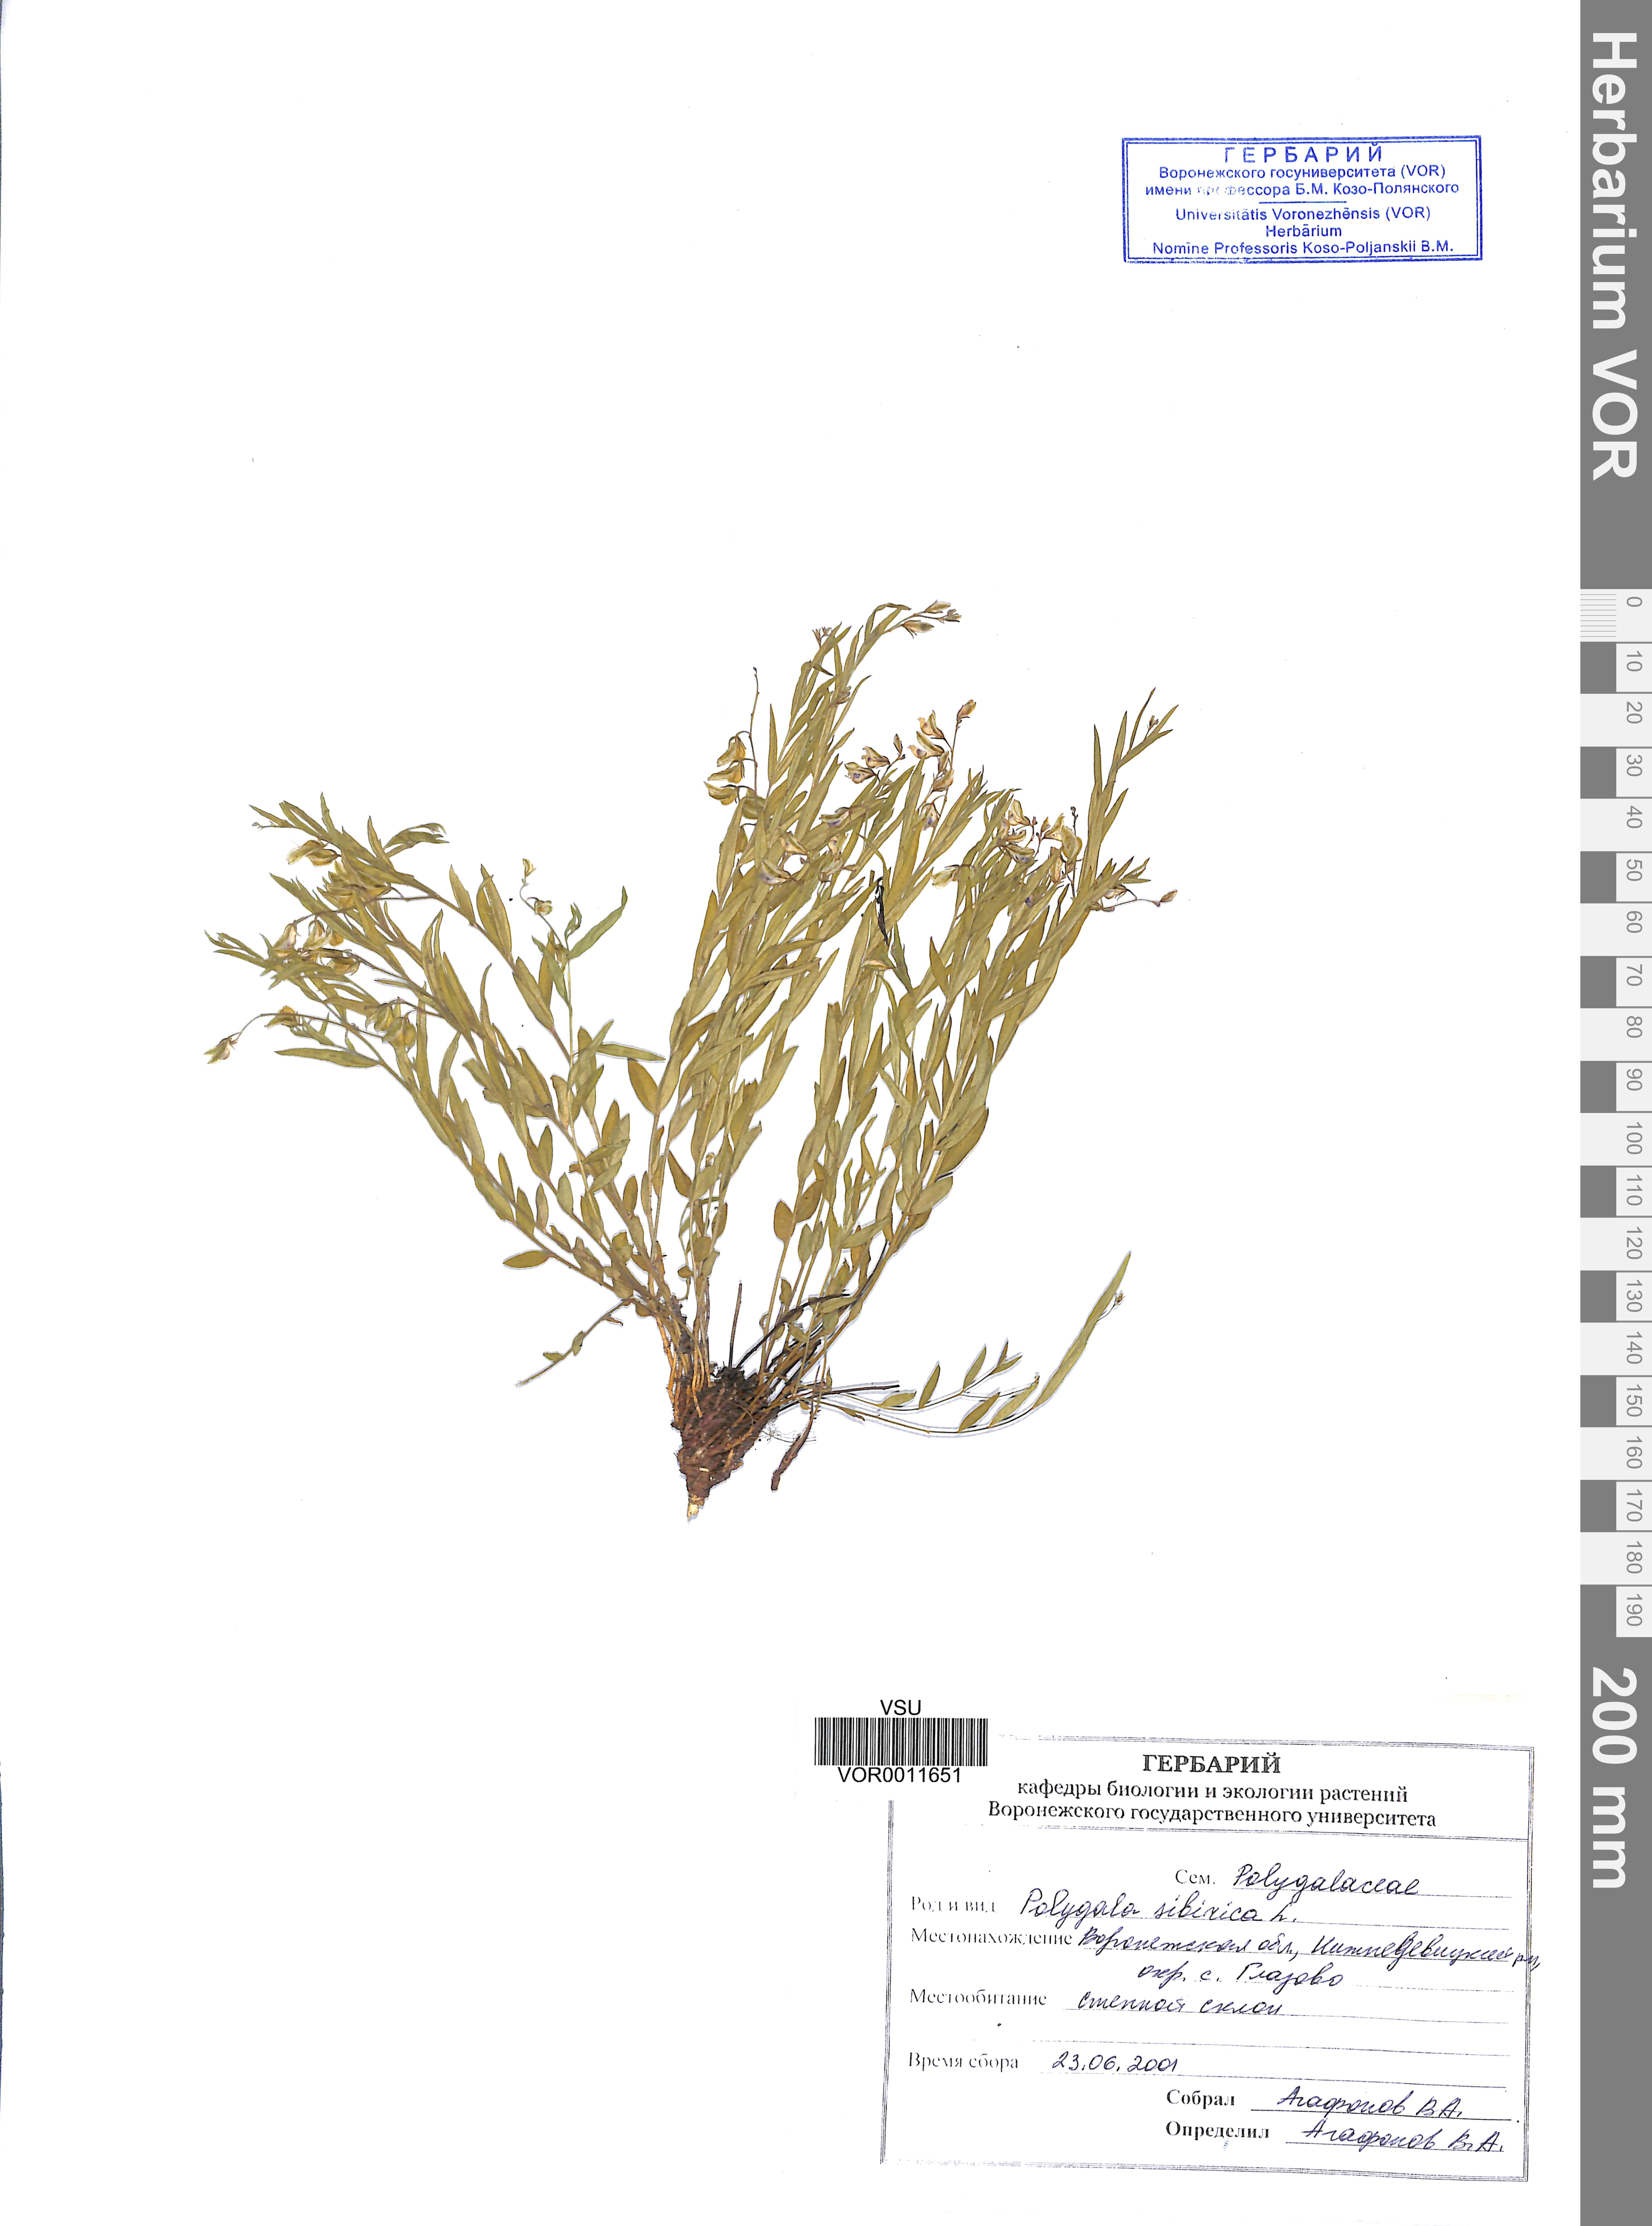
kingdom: Plantae
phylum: Tracheophyta
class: Magnoliopsida
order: Fabales
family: Polygalaceae
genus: Polygala
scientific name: Polygala sibirica
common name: Siberian polygala
